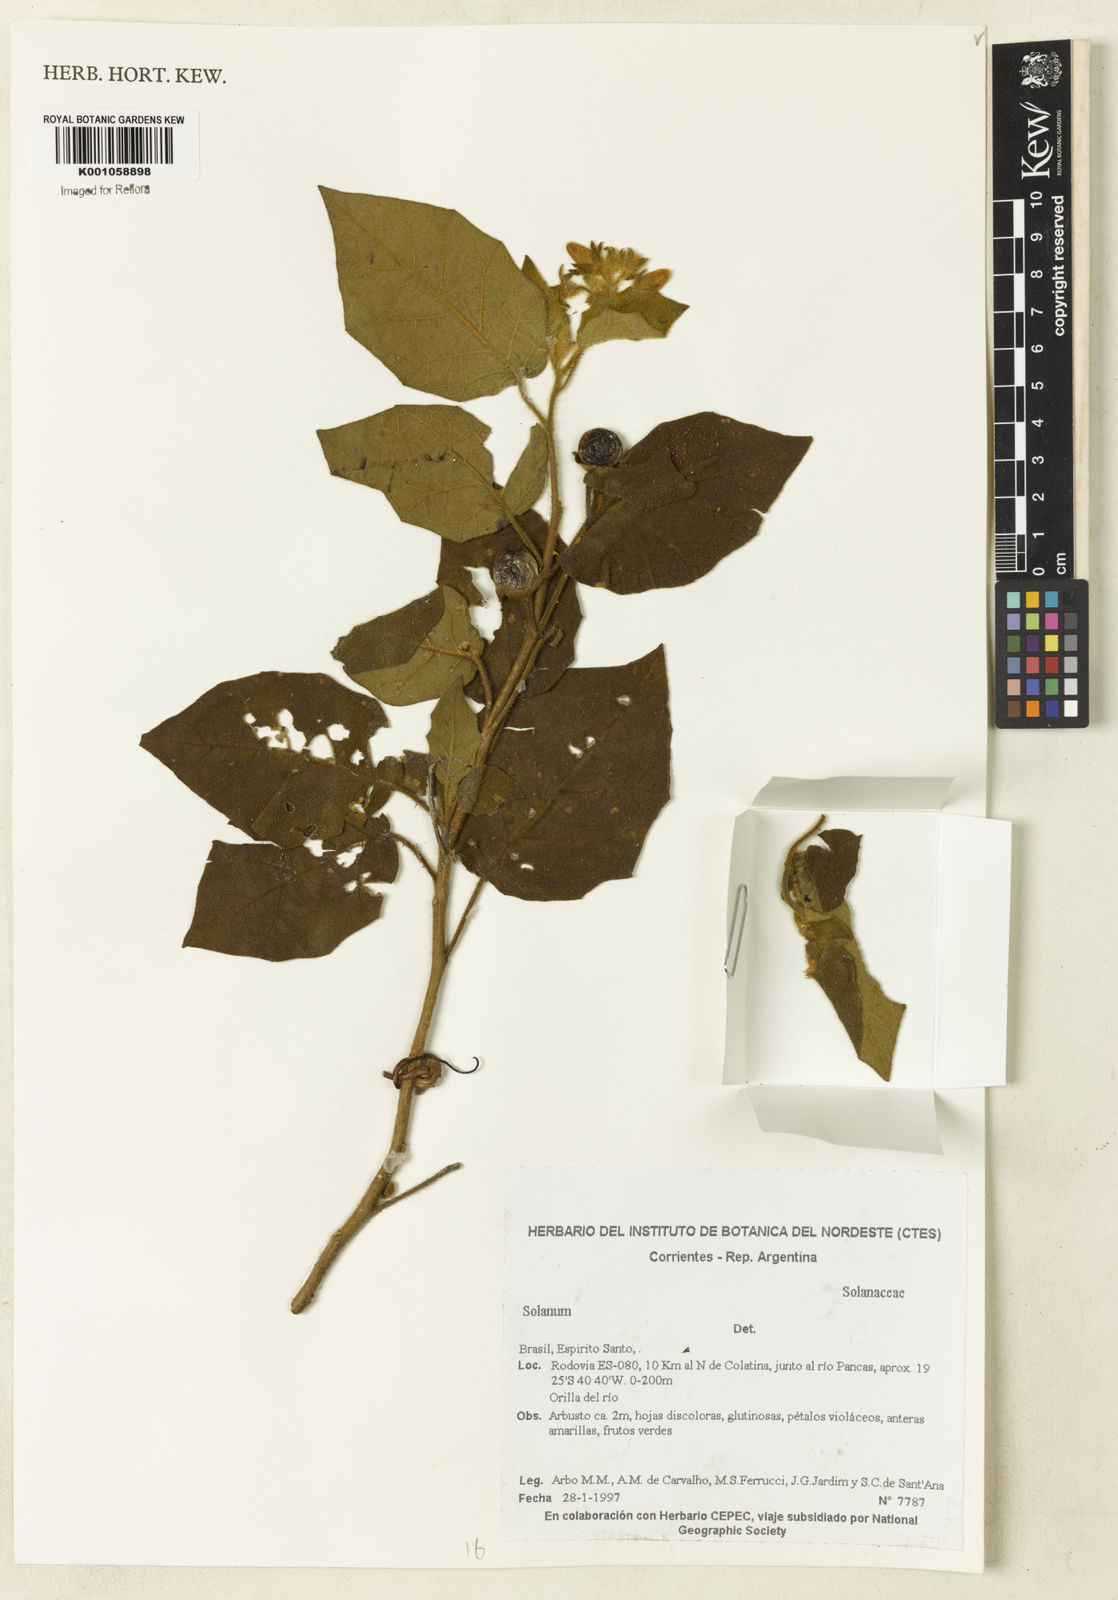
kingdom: Plantae
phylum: Tracheophyta
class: Magnoliopsida
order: Solanales
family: Solanaceae
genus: Solanum
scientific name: Solanum
